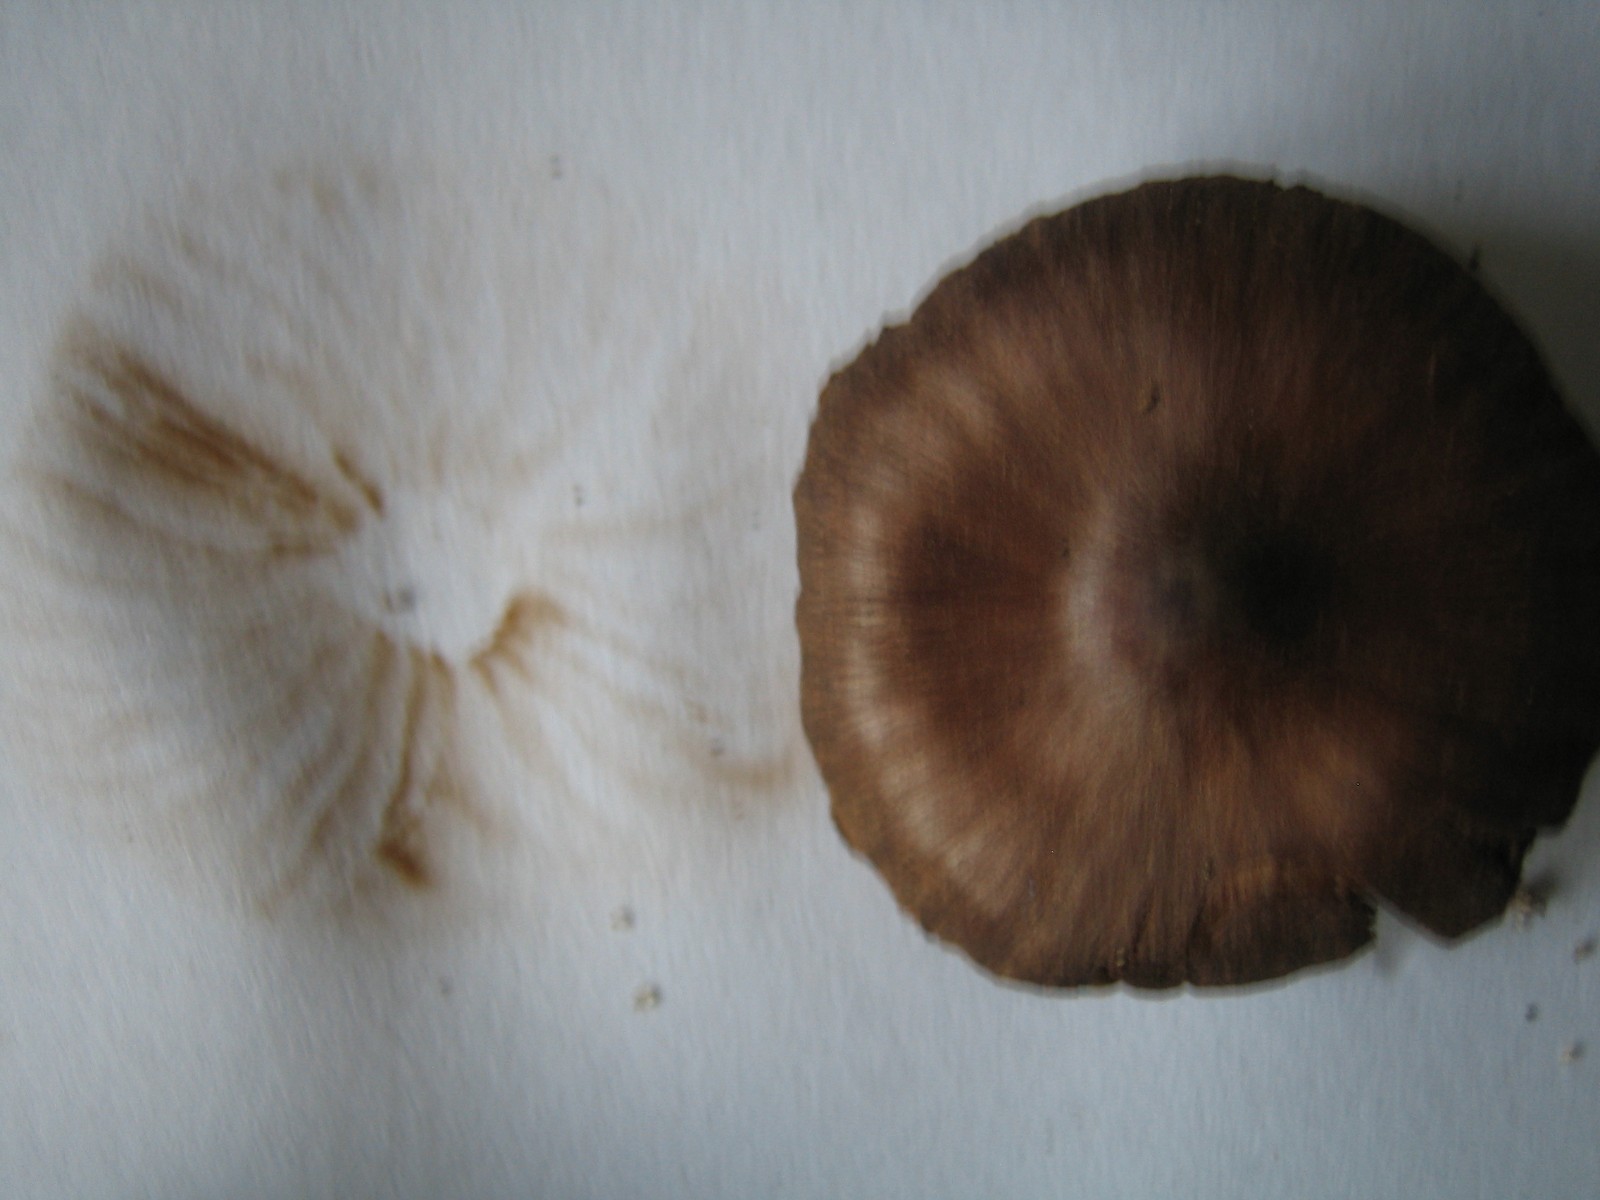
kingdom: Fungi
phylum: Basidiomycota
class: Agaricomycetes
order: Agaricales
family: Cortinariaceae
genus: Cortinarius
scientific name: Cortinarius
